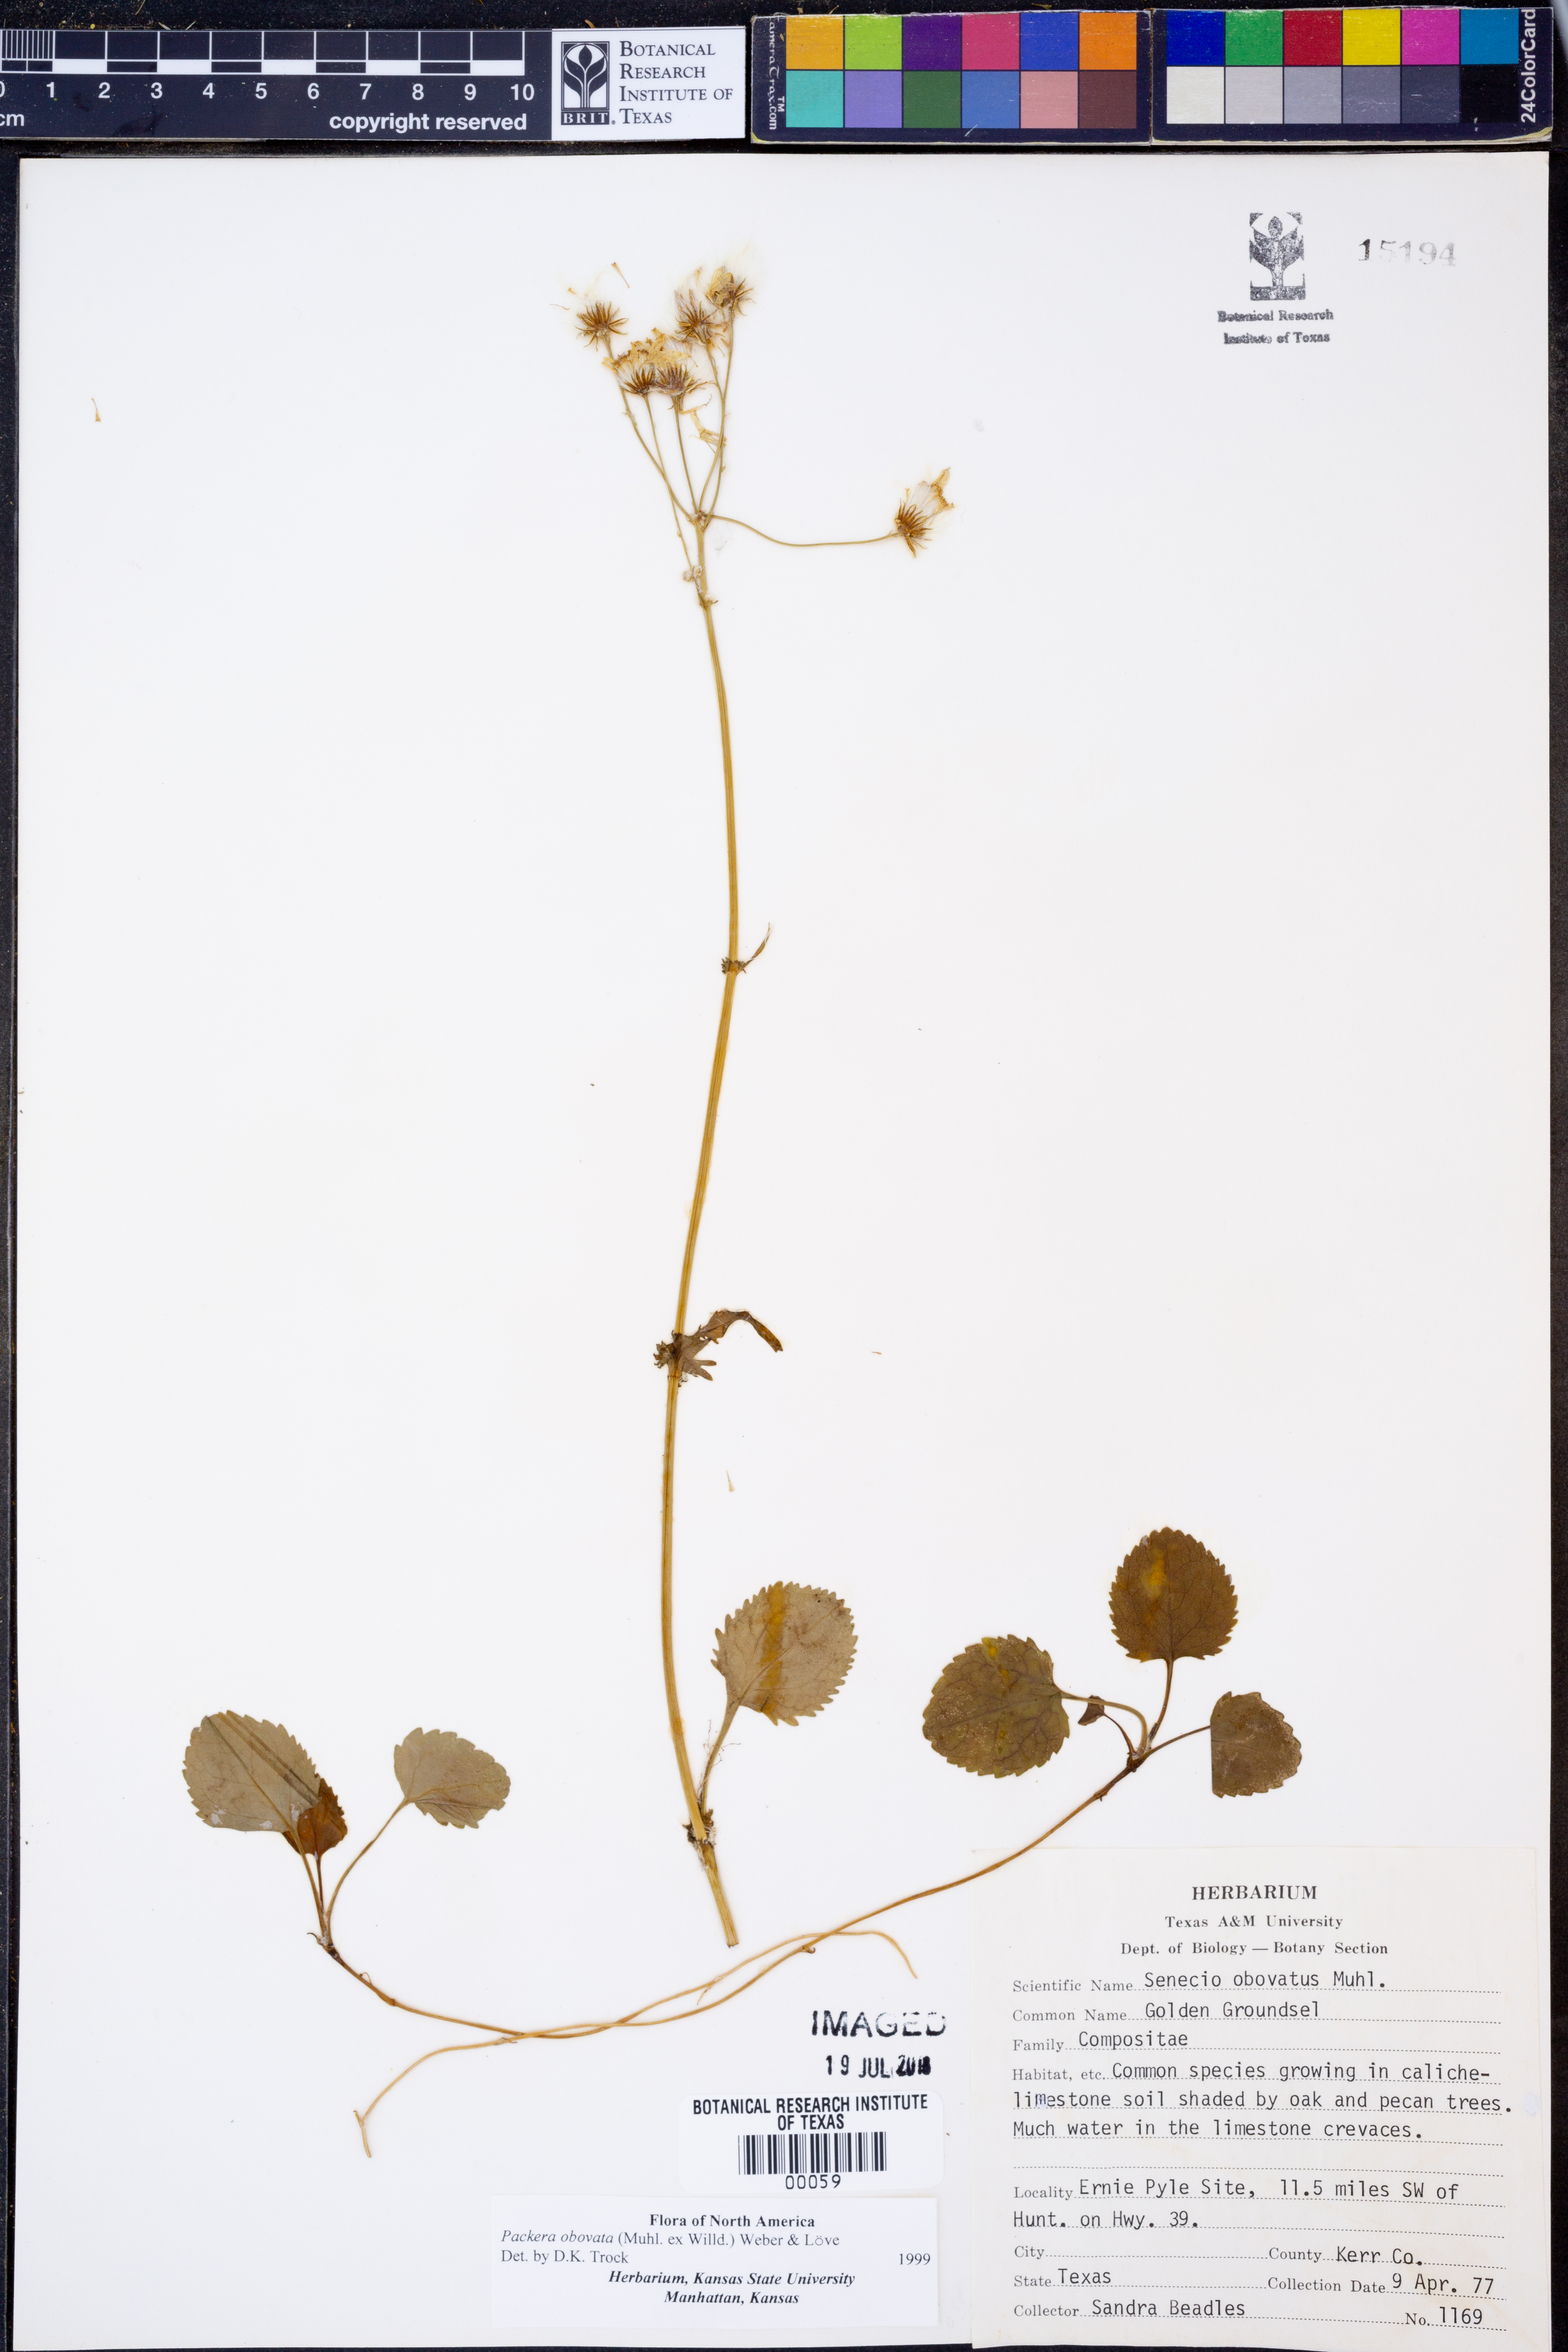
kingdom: Plantae
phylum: Tracheophyta
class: Magnoliopsida
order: Asterales
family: Asteraceae
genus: Packera
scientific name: Packera obovata
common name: Round-leaf ragwort
